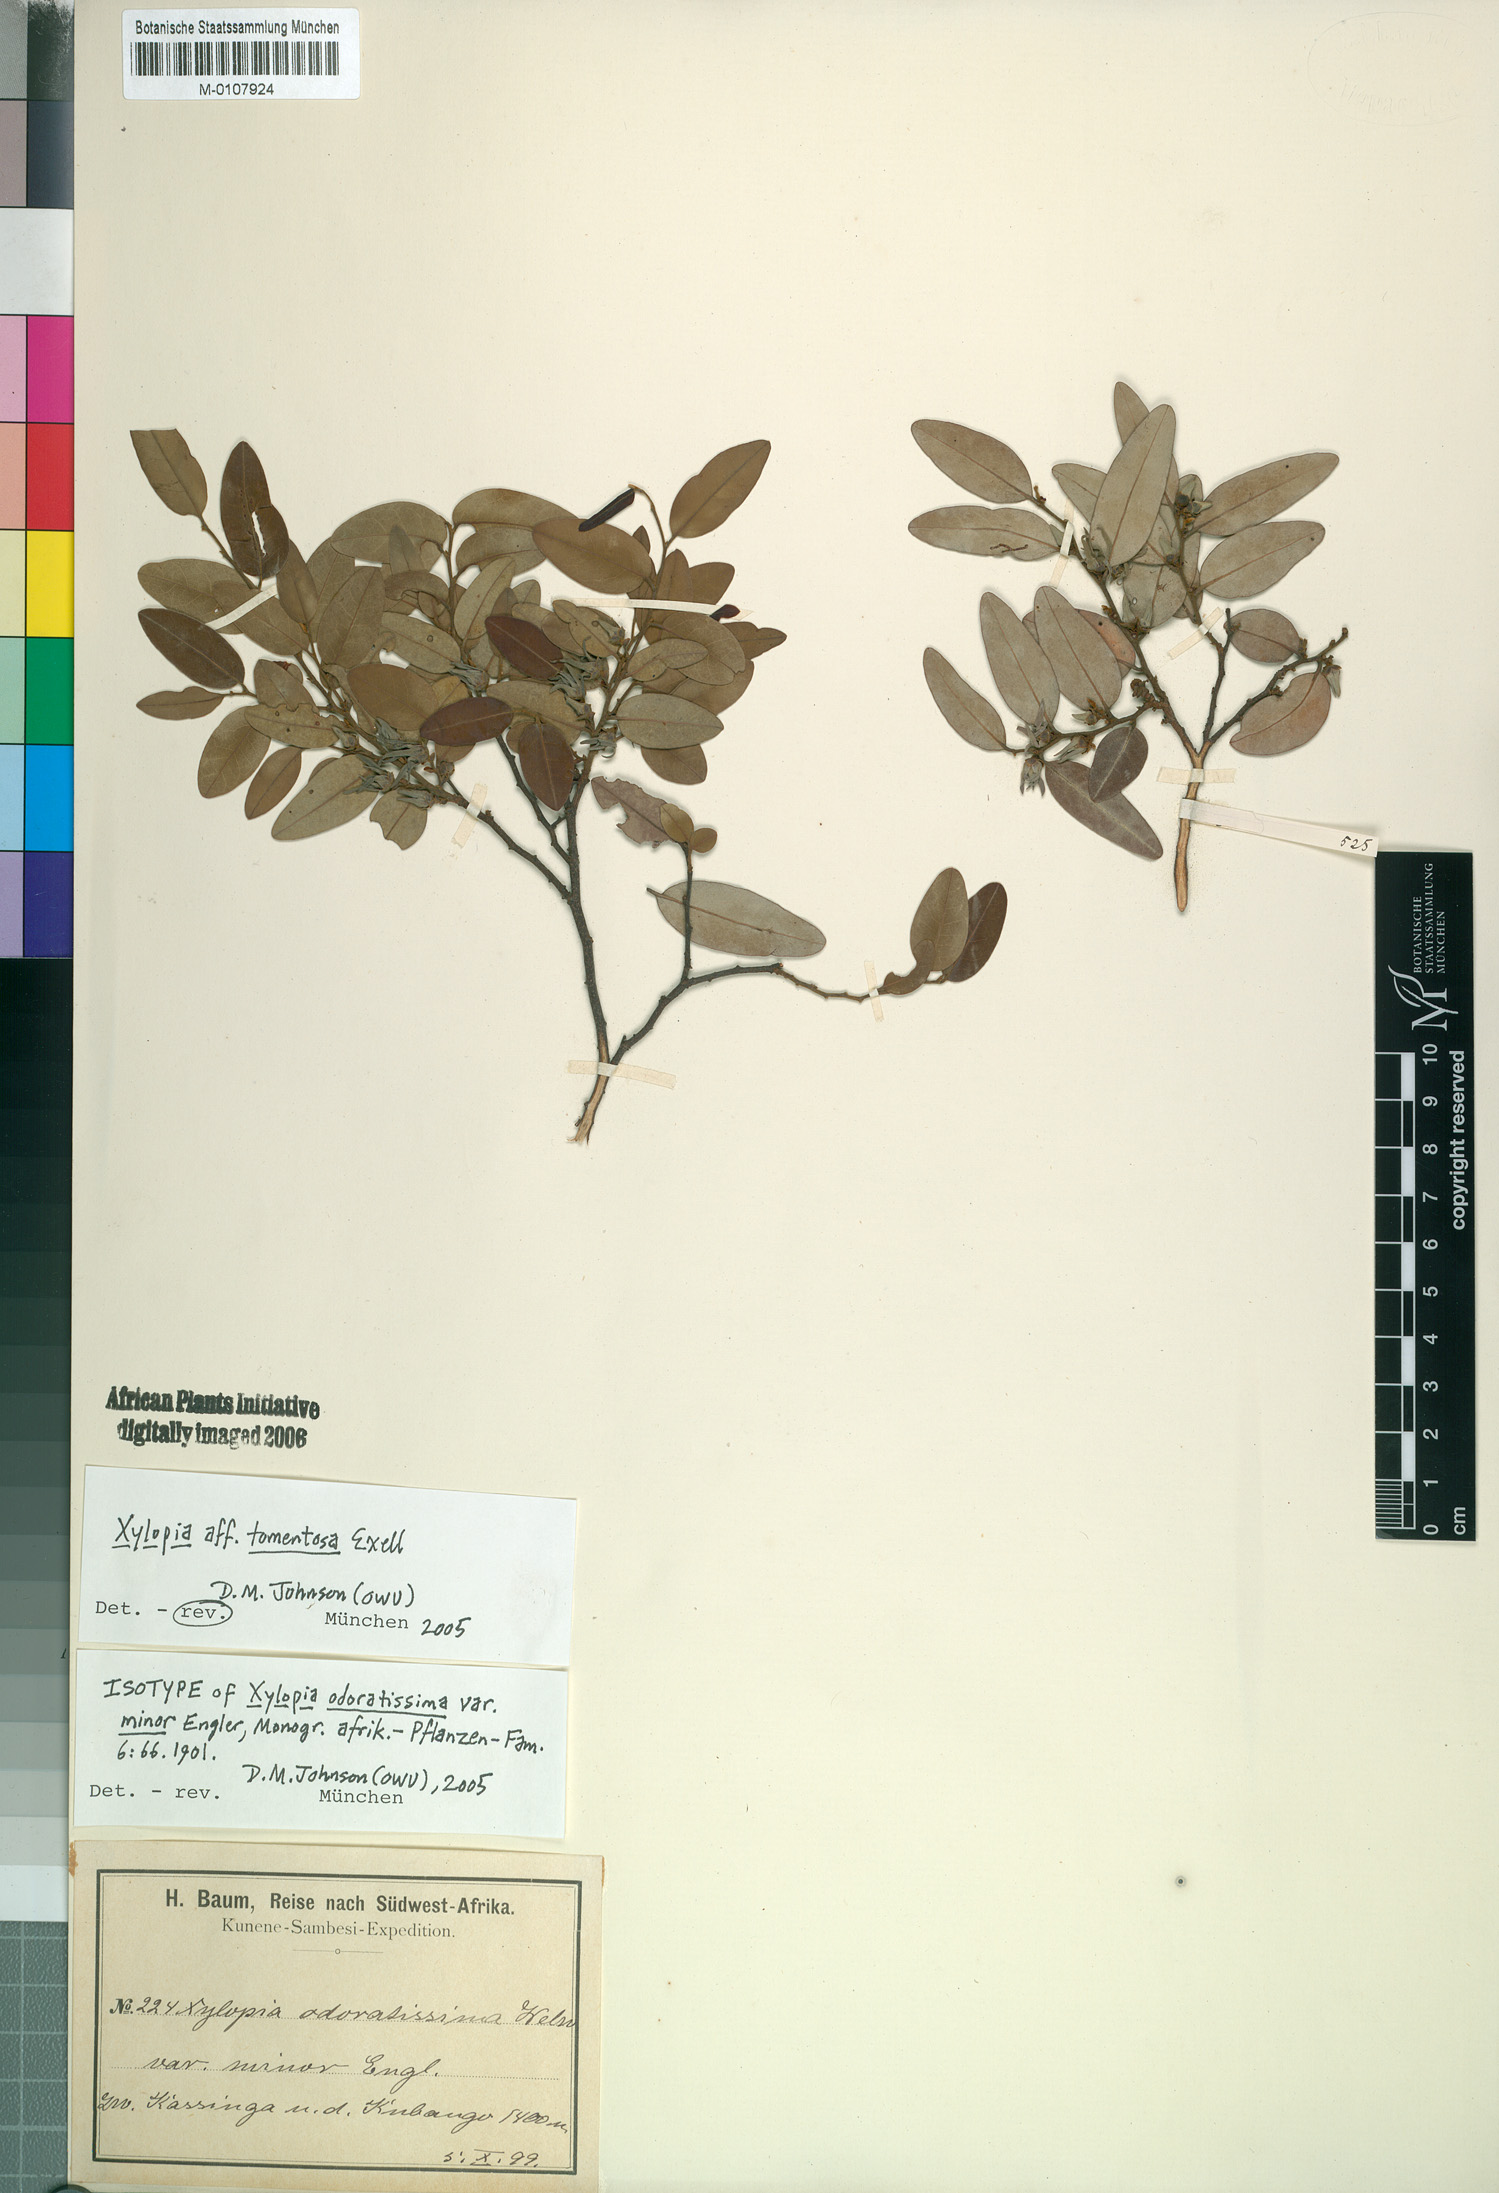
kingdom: Plantae
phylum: Tracheophyta
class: Magnoliopsida
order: Magnoliales
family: Annonaceae
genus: Xylopia
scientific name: Xylopia tomentosa
